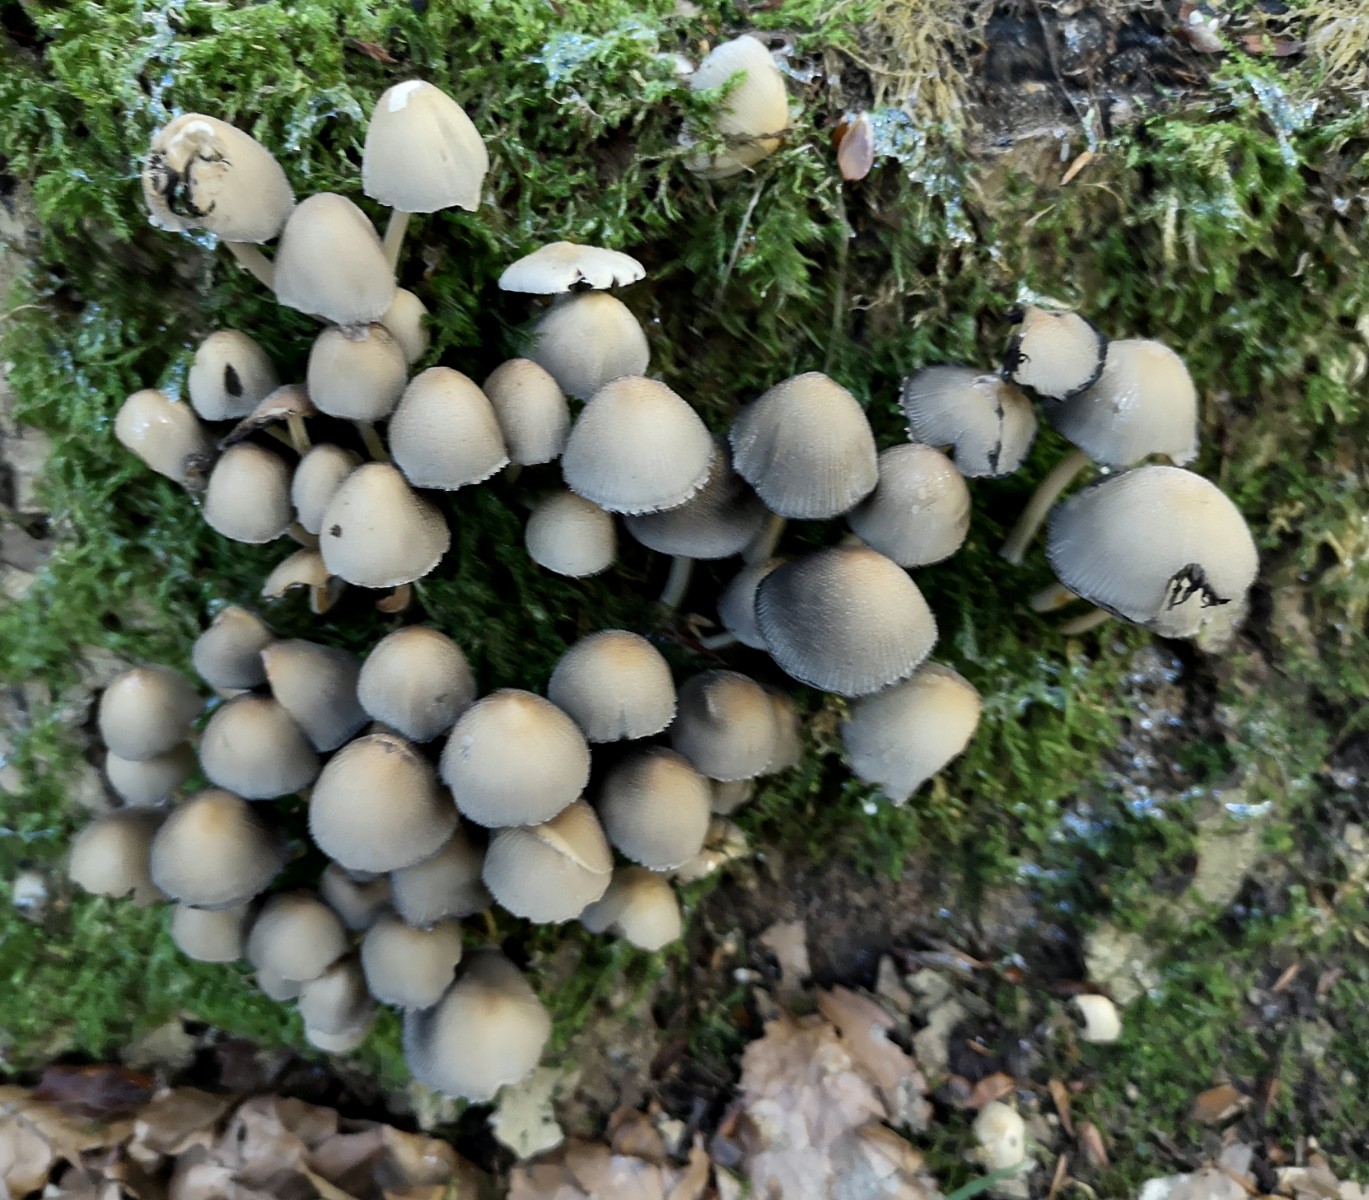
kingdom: Fungi
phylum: Basidiomycota
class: Agaricomycetes
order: Agaricales
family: Psathyrellaceae
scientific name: Psathyrellaceae
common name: mørkhatfamilien
